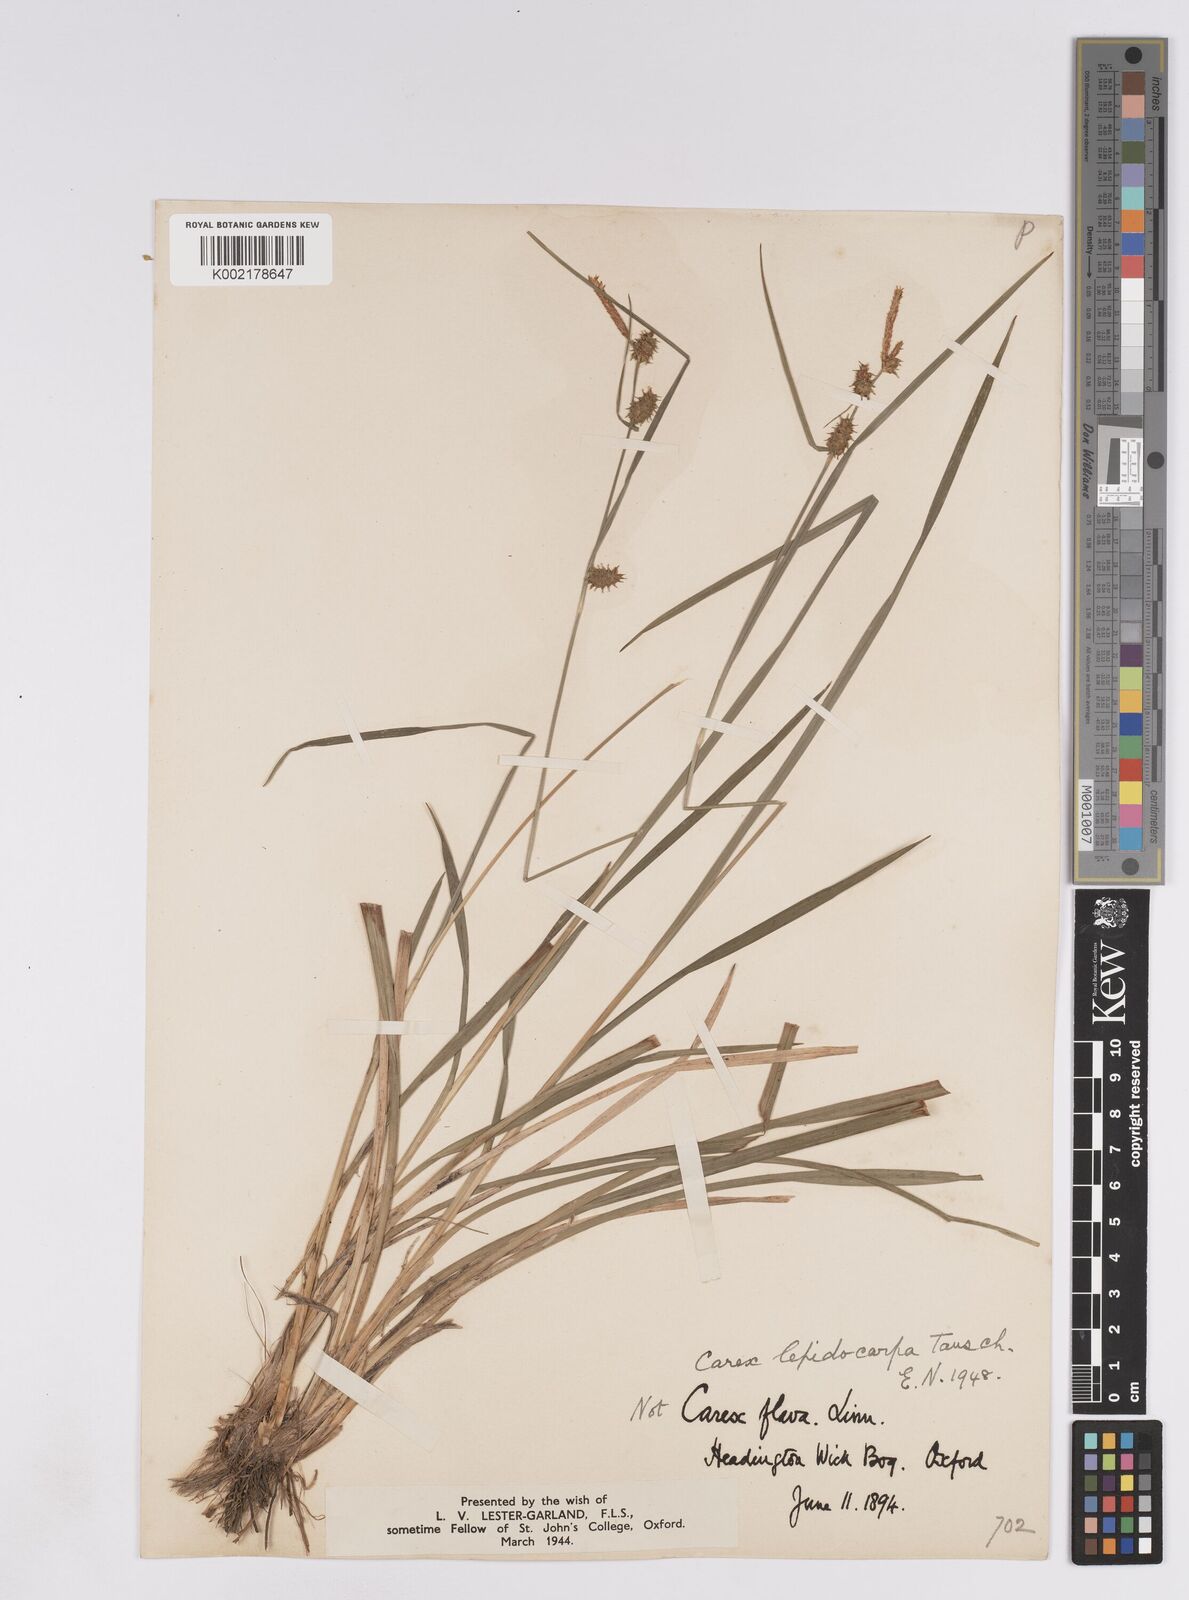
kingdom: Plantae
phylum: Tracheophyta
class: Liliopsida
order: Poales
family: Cyperaceae
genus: Carex
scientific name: Carex lepidocarpa
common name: Long-stalked yellow-sedge
